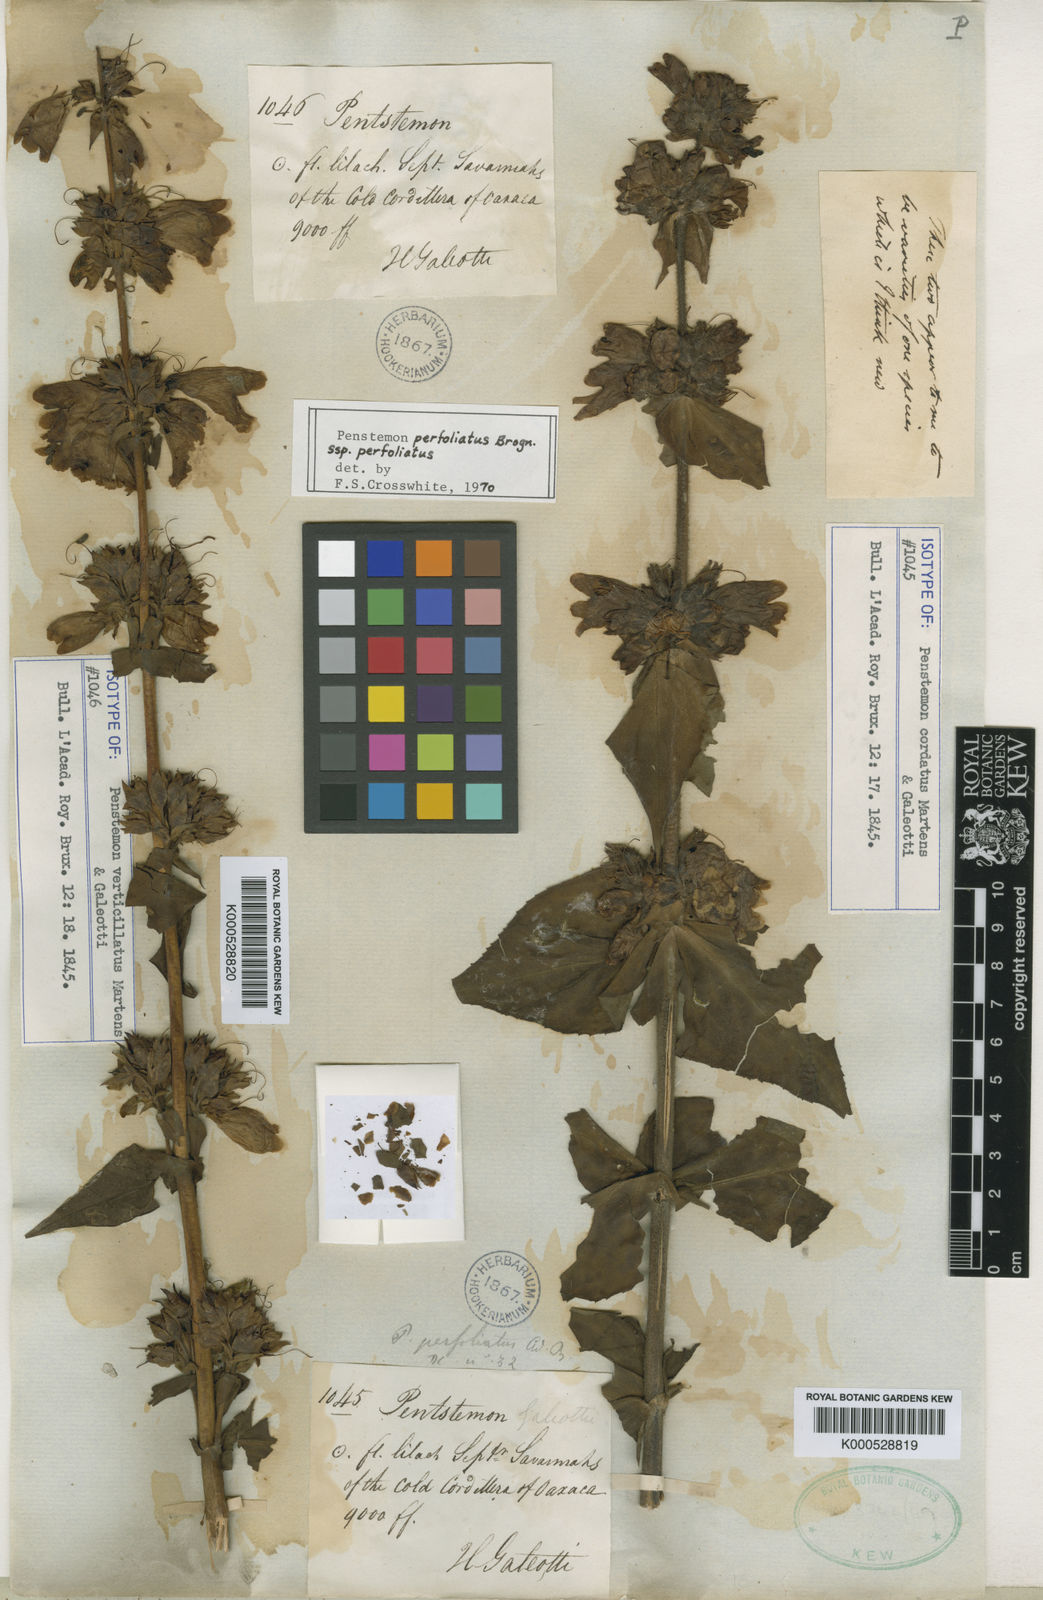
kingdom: Plantae
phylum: Tracheophyta
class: Magnoliopsida
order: Lamiales
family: Plantaginaceae
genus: Penstemon
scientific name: Penstemon perfoliatus
